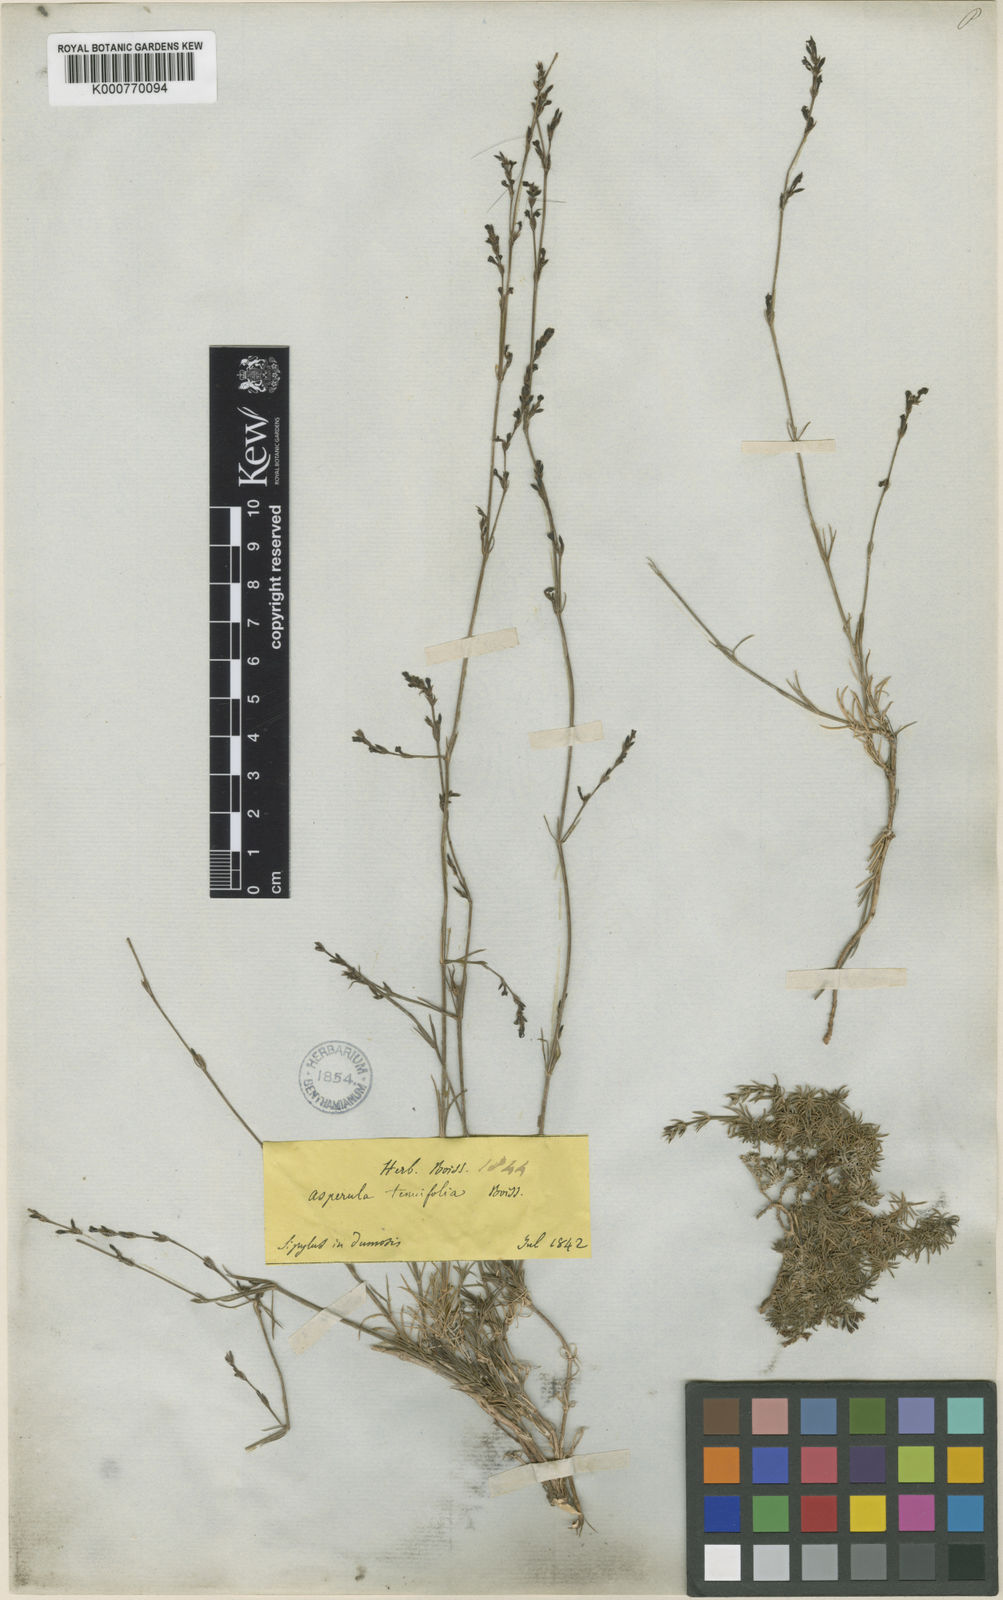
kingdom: Plantae
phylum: Tracheophyta
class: Magnoliopsida
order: Gentianales
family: Rubiaceae
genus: Cynanchica
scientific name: Cynanchica tenuifolia
